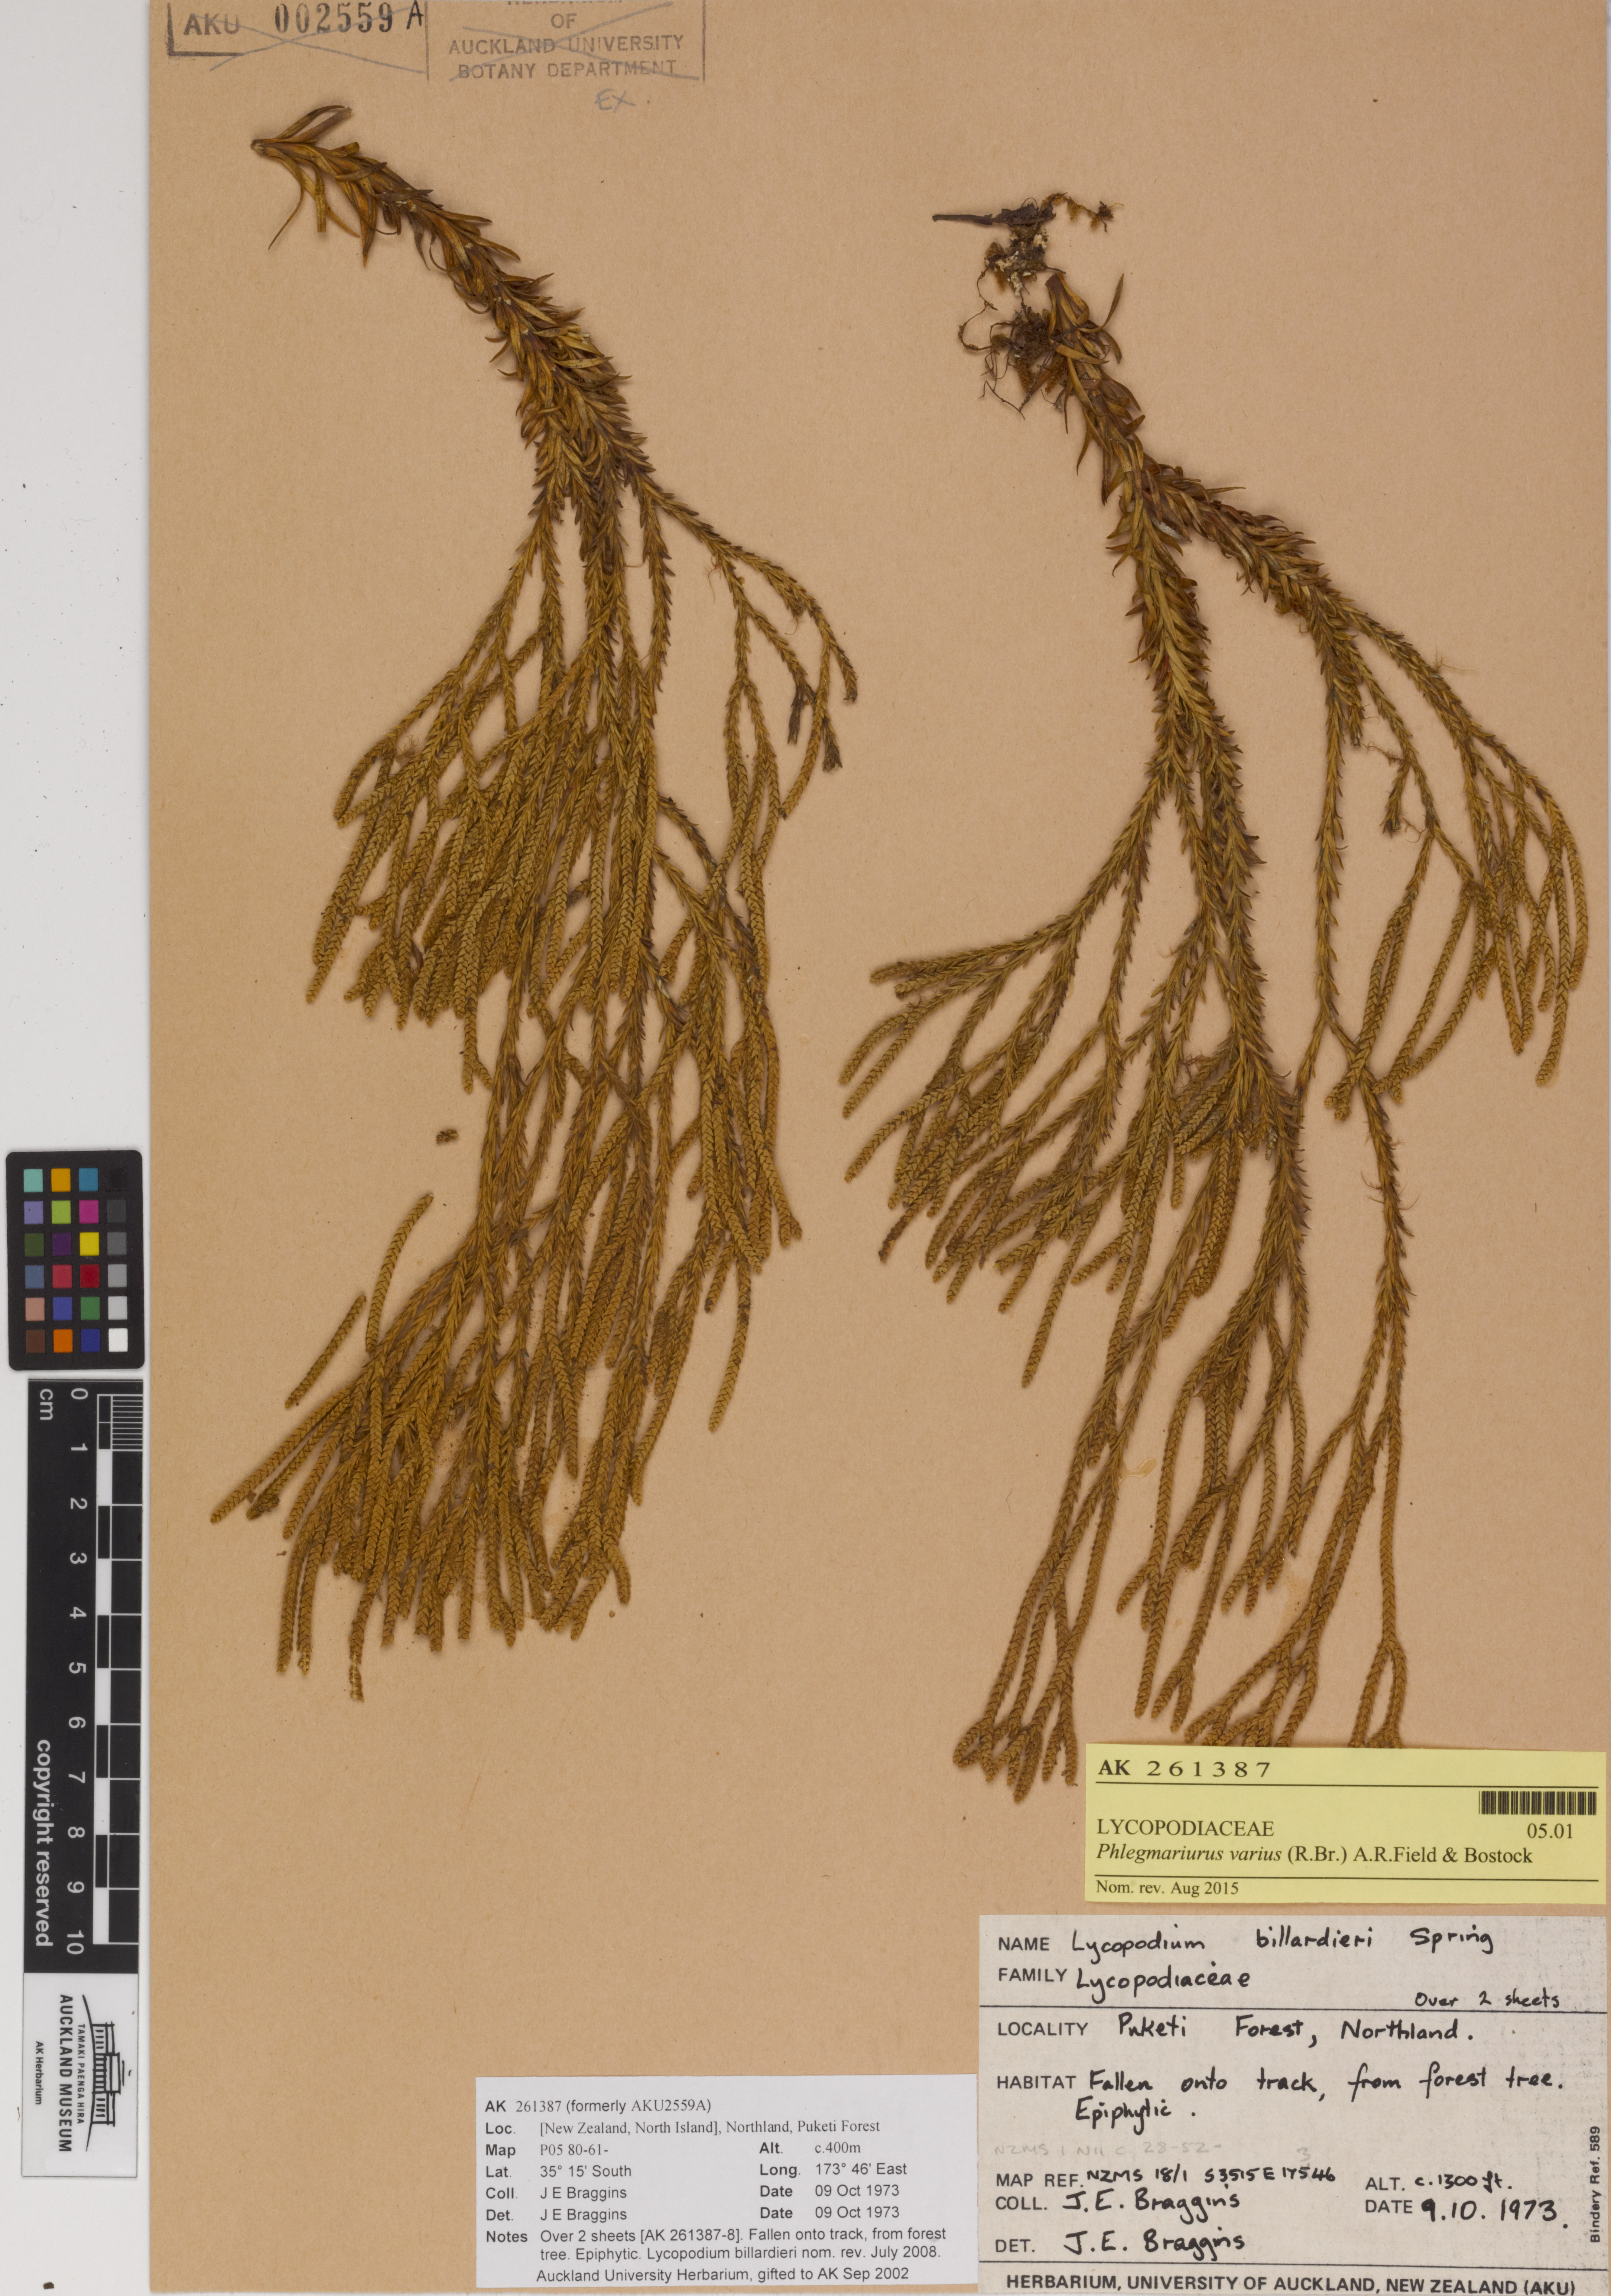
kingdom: Plantae
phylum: Tracheophyta
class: Lycopodiopsida
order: Lycopodiales
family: Lycopodiaceae
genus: Phlegmariurus
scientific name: Phlegmariurus billardierei
